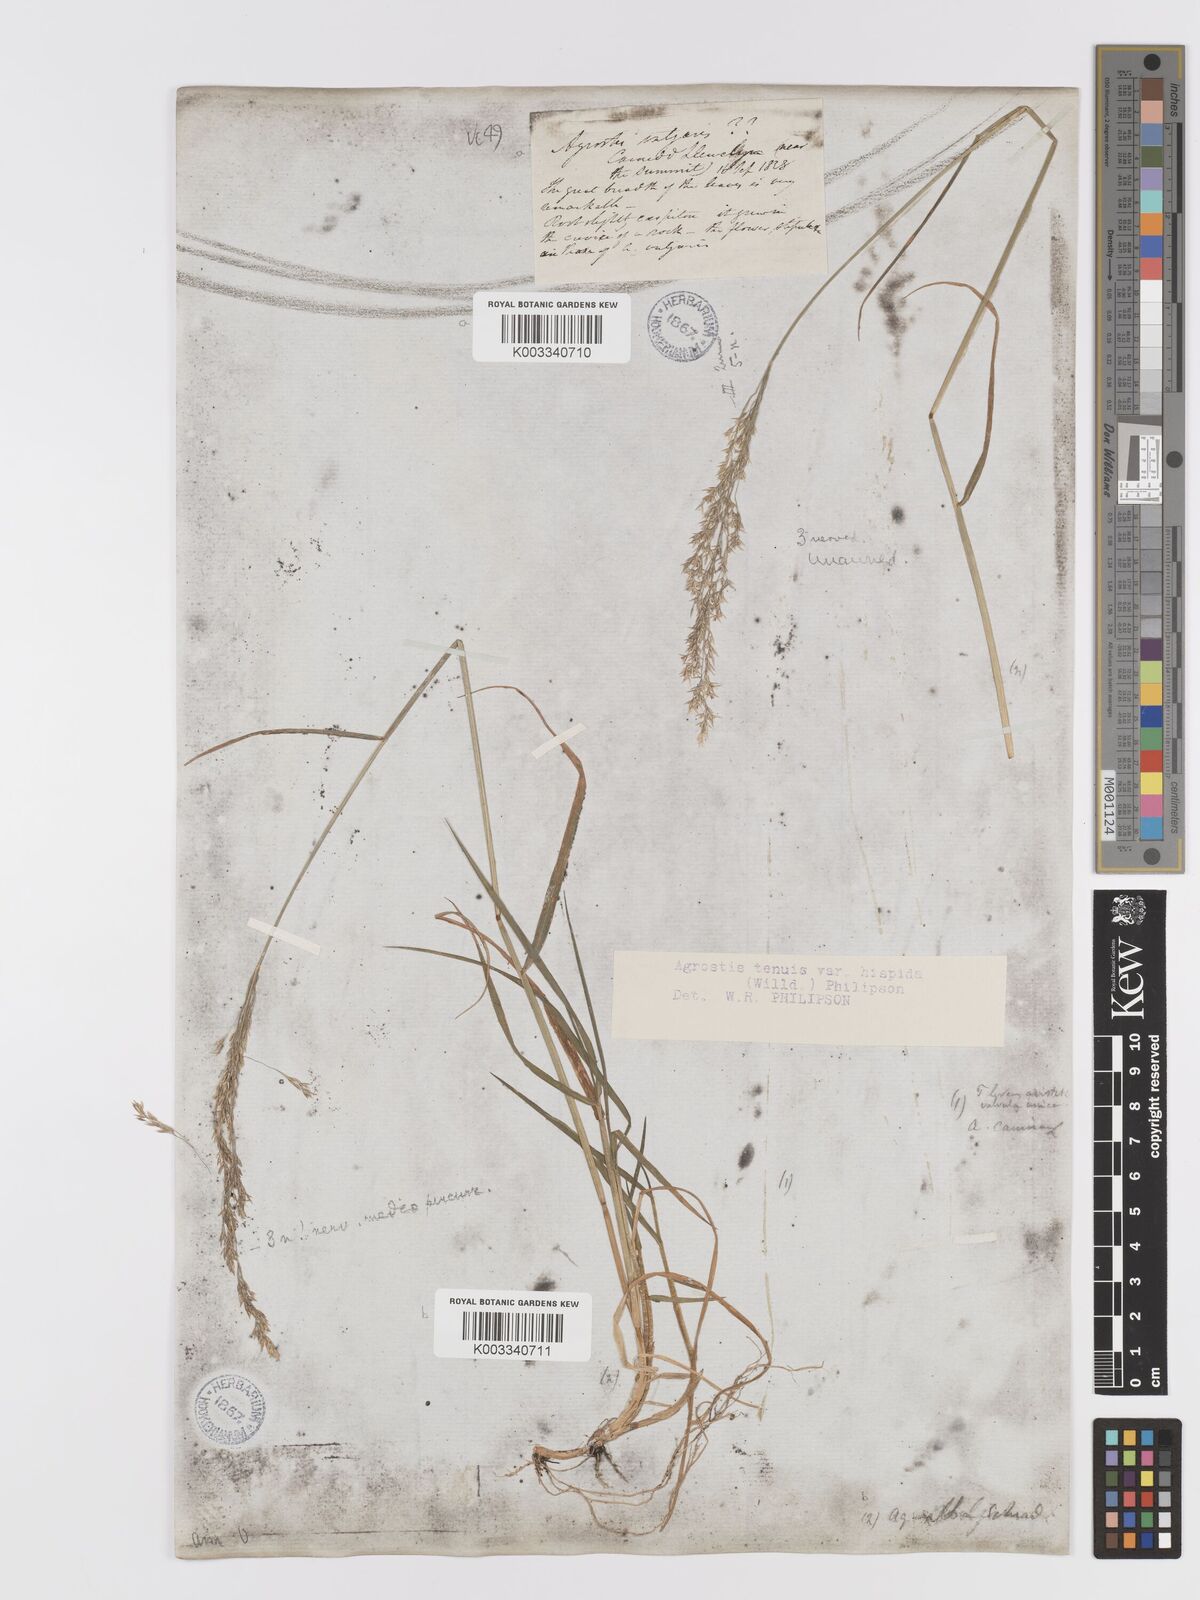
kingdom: Plantae
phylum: Tracheophyta
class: Liliopsida
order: Poales
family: Poaceae
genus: Agrostis
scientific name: Agrostis capillaris
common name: Colonial bentgrass
